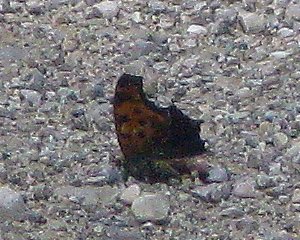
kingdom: Animalia
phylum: Arthropoda
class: Insecta
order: Lepidoptera
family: Nymphalidae
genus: Polygonia
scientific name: Polygonia comma
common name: Eastern Comma
